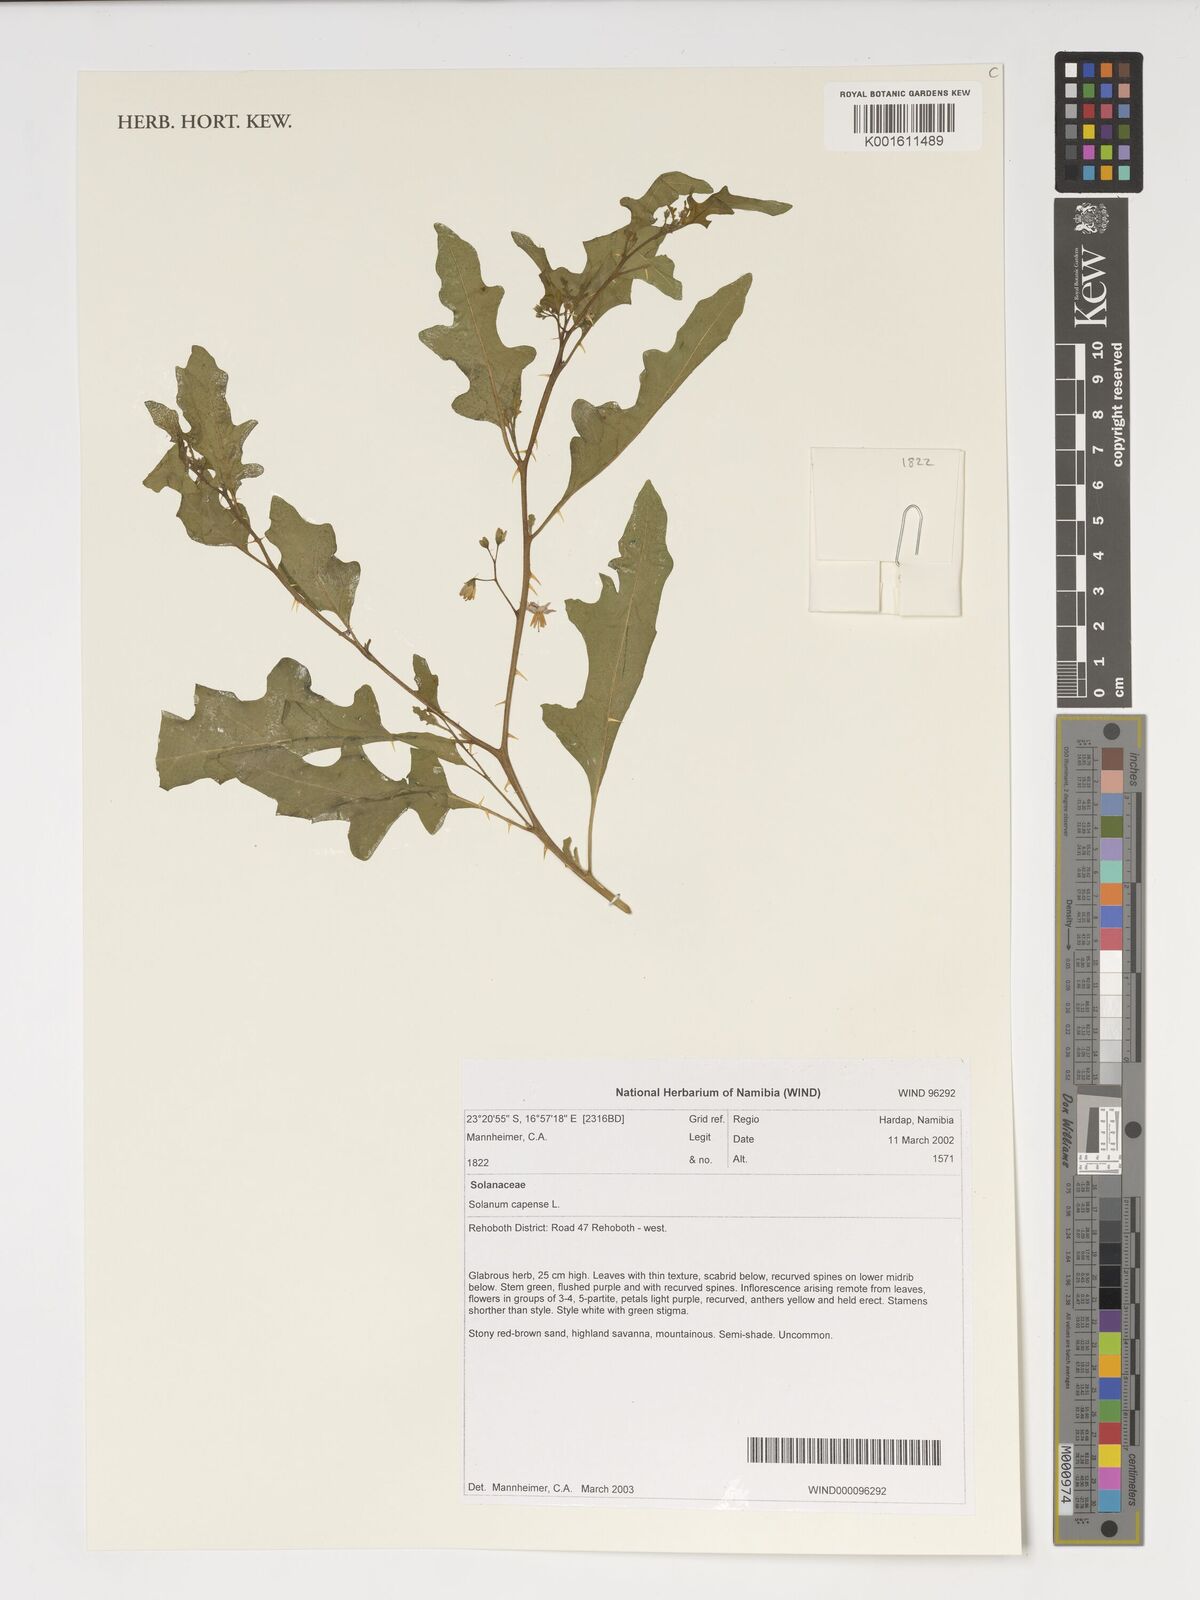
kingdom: Plantae
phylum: Tracheophyta
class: Magnoliopsida
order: Solanales
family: Solanaceae
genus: Solanum
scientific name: Solanum capense
